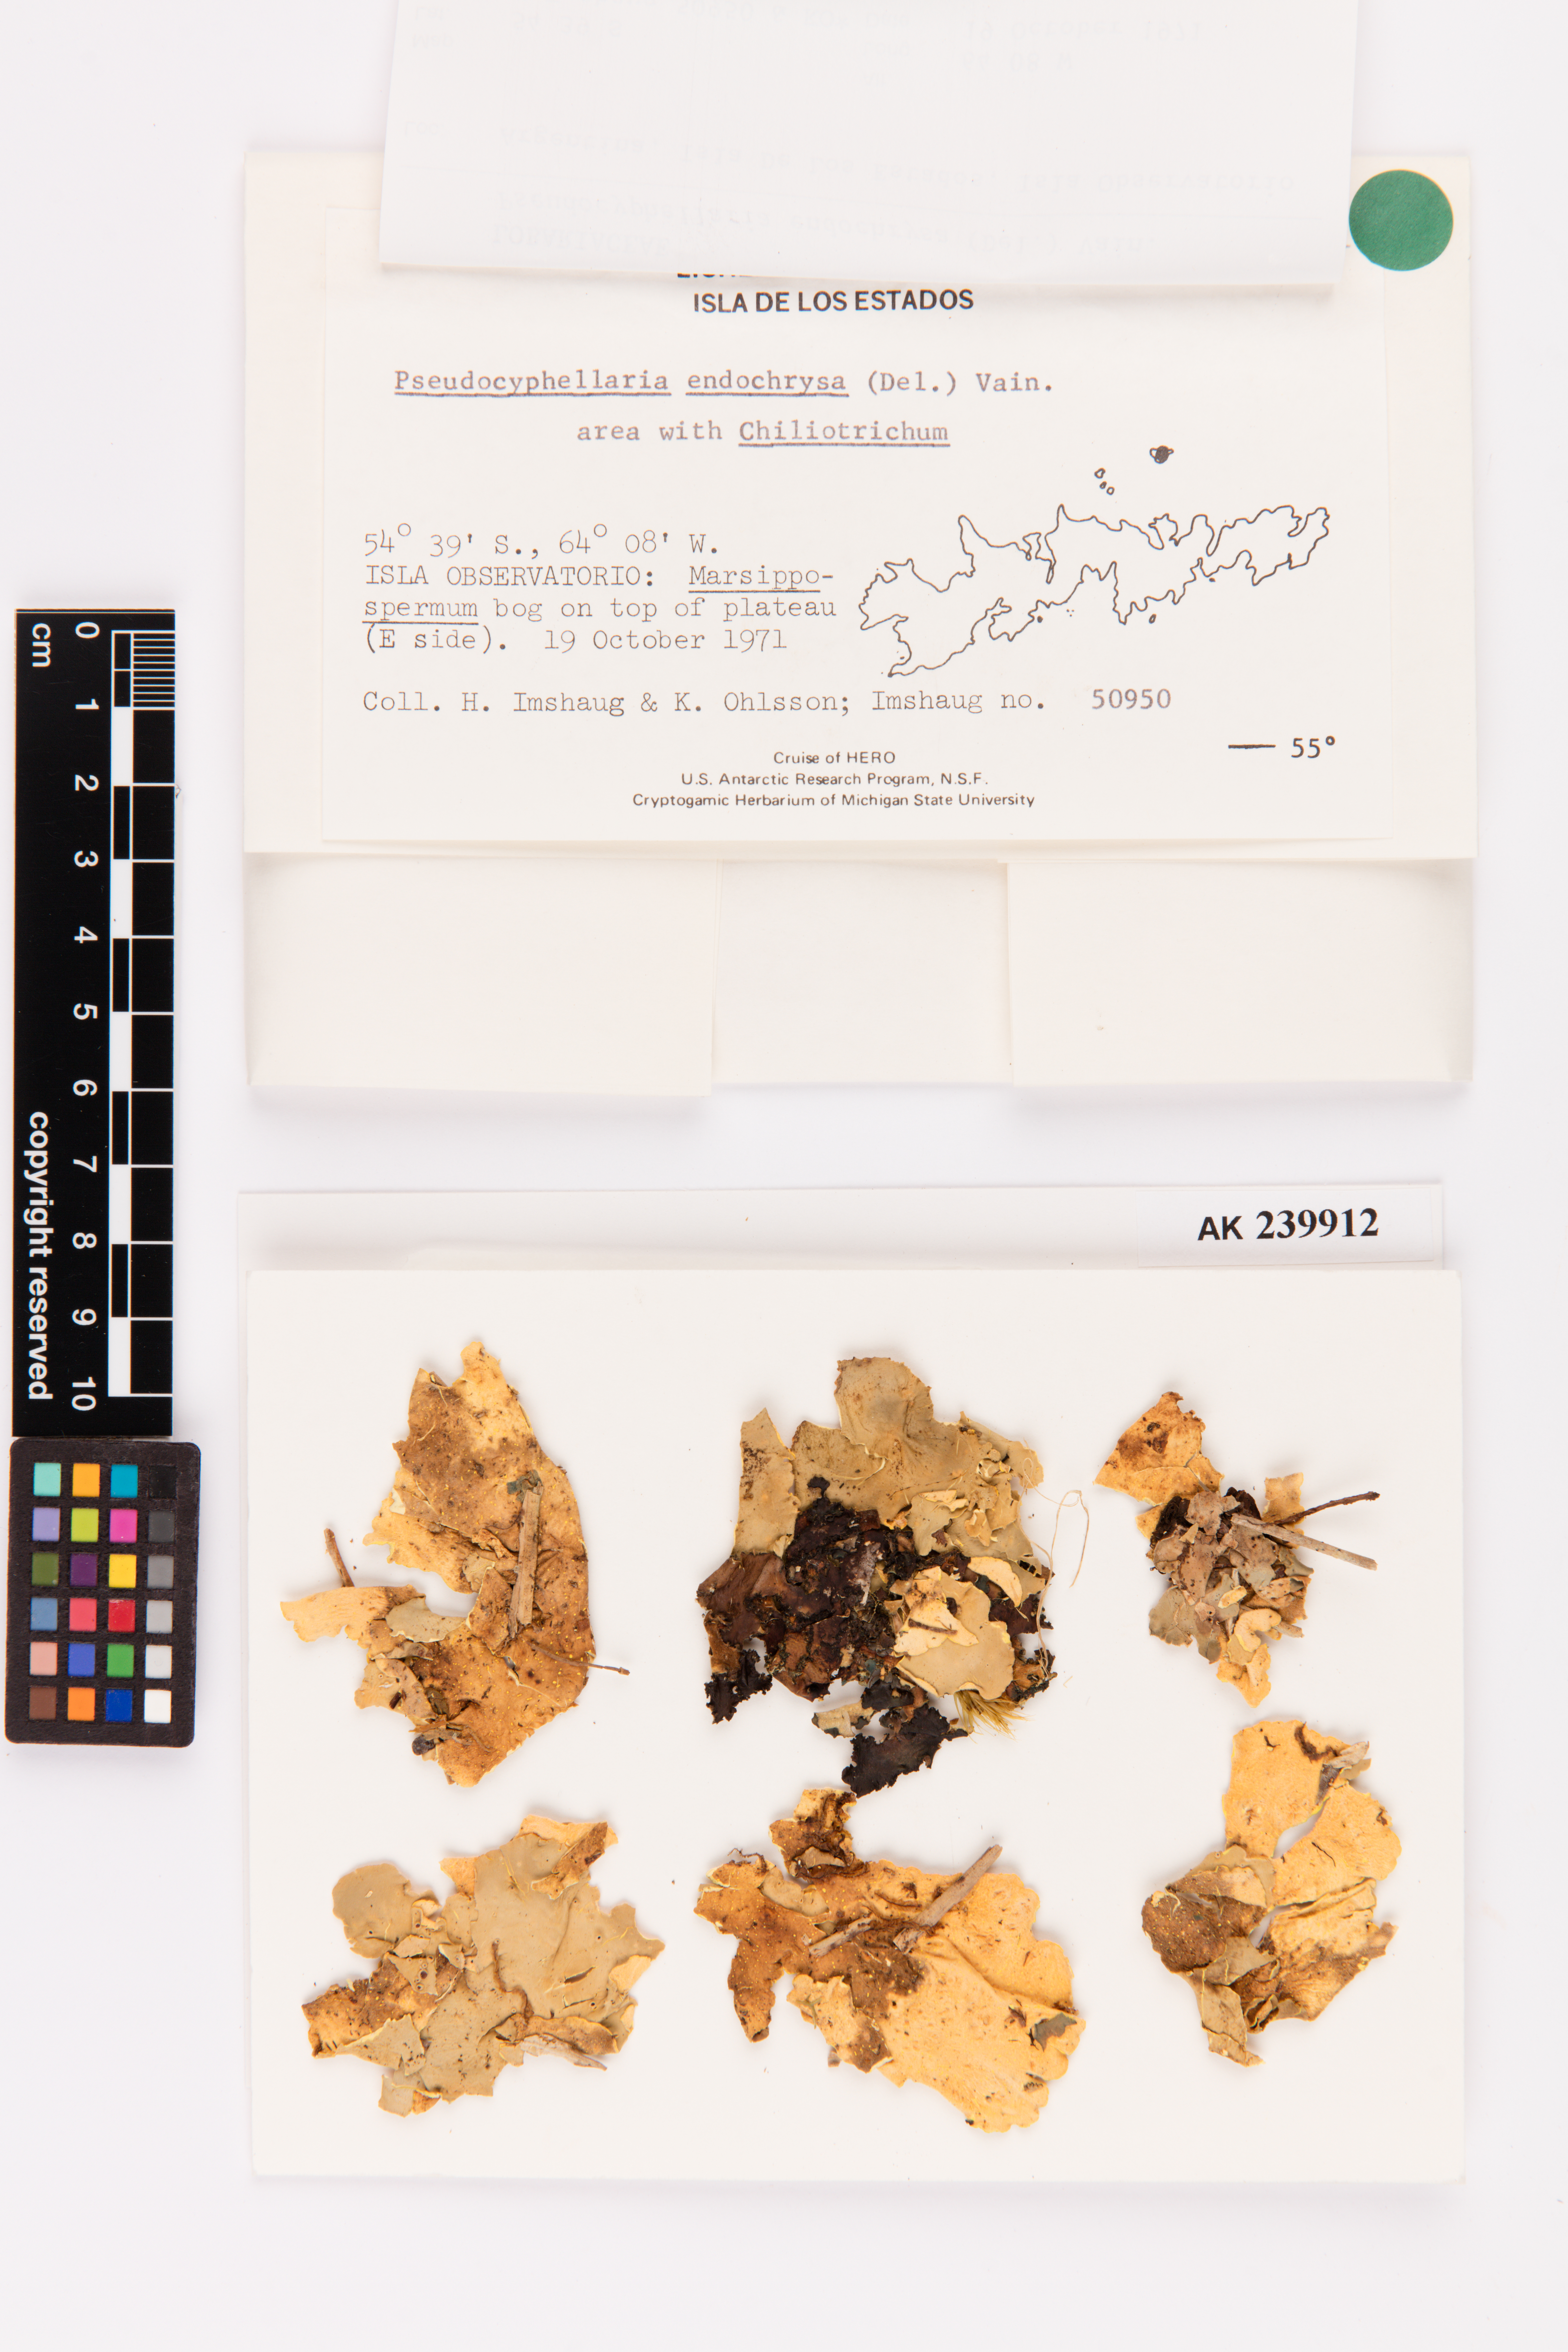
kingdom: Fungi
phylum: Ascomycota
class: Lecanoromycetes
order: Peltigerales
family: Lobariaceae
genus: Podostictina
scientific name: Podostictina endochrysa
